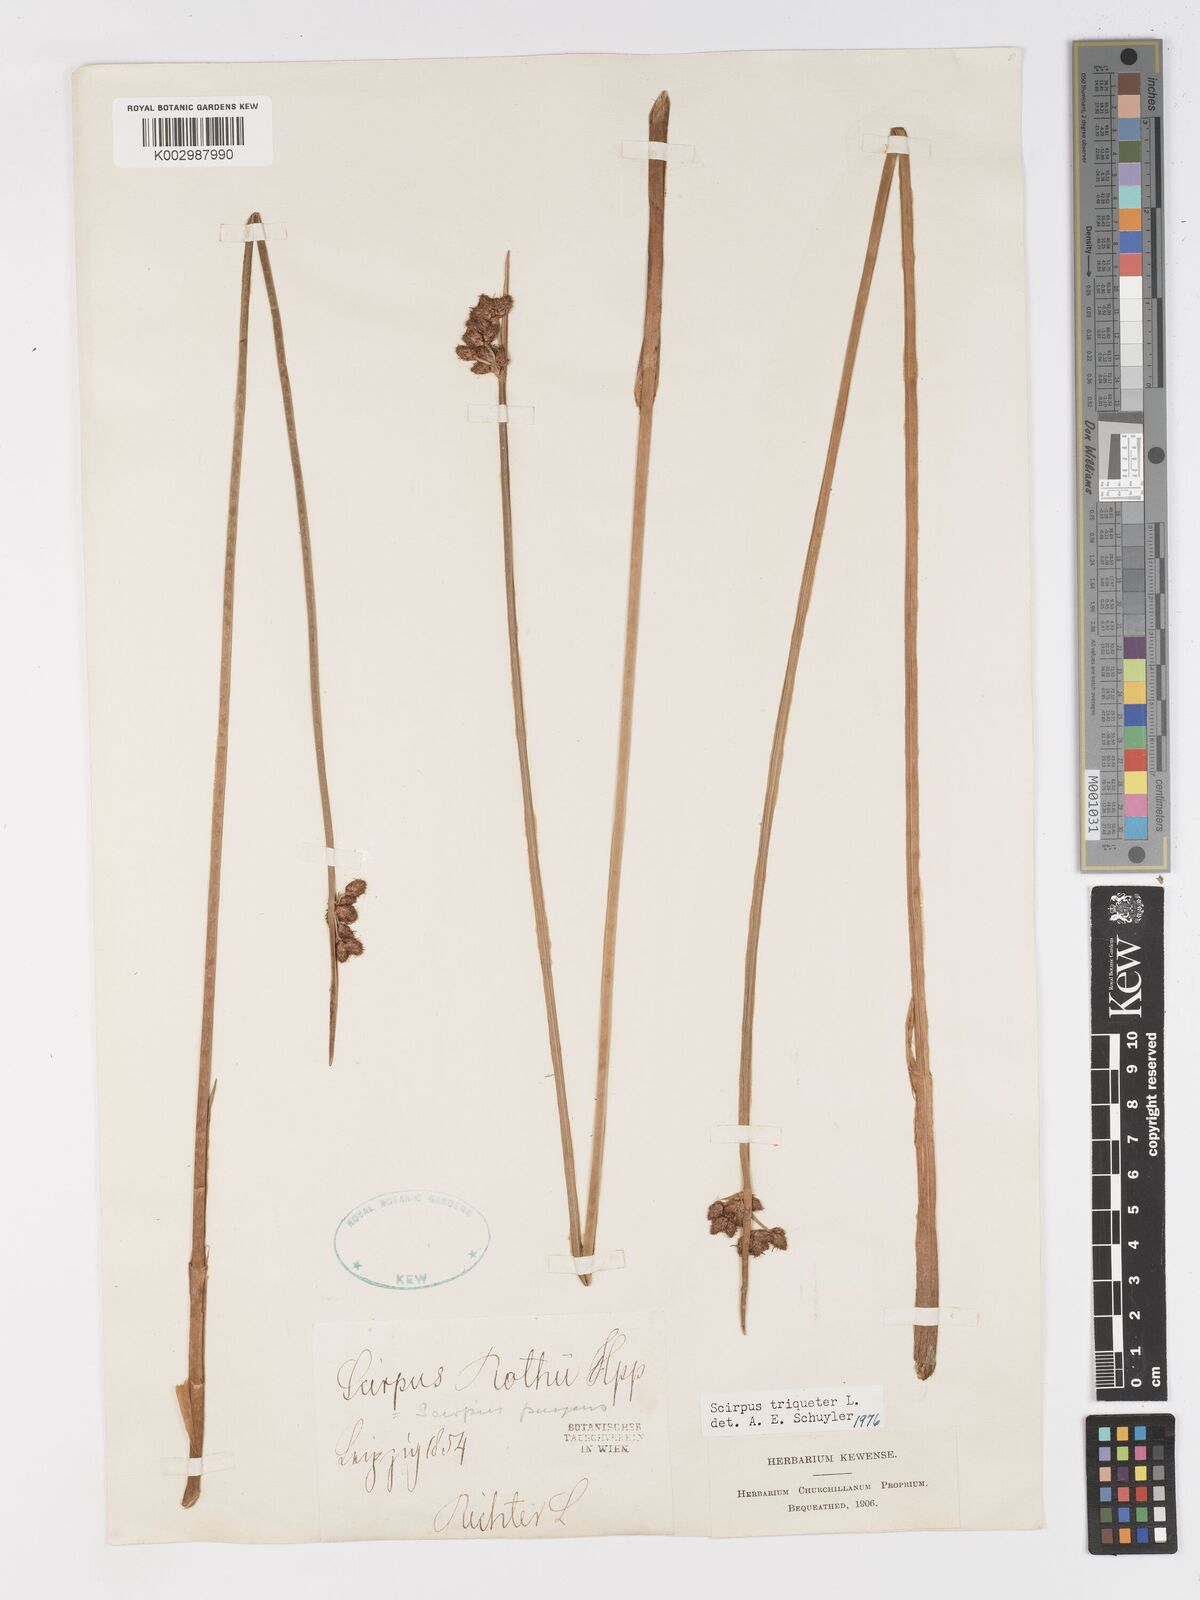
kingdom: Plantae
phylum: Tracheophyta
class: Liliopsida
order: Poales
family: Cyperaceae
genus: Schoenoplectus
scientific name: Schoenoplectus triqueter
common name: Triangular club-rush
